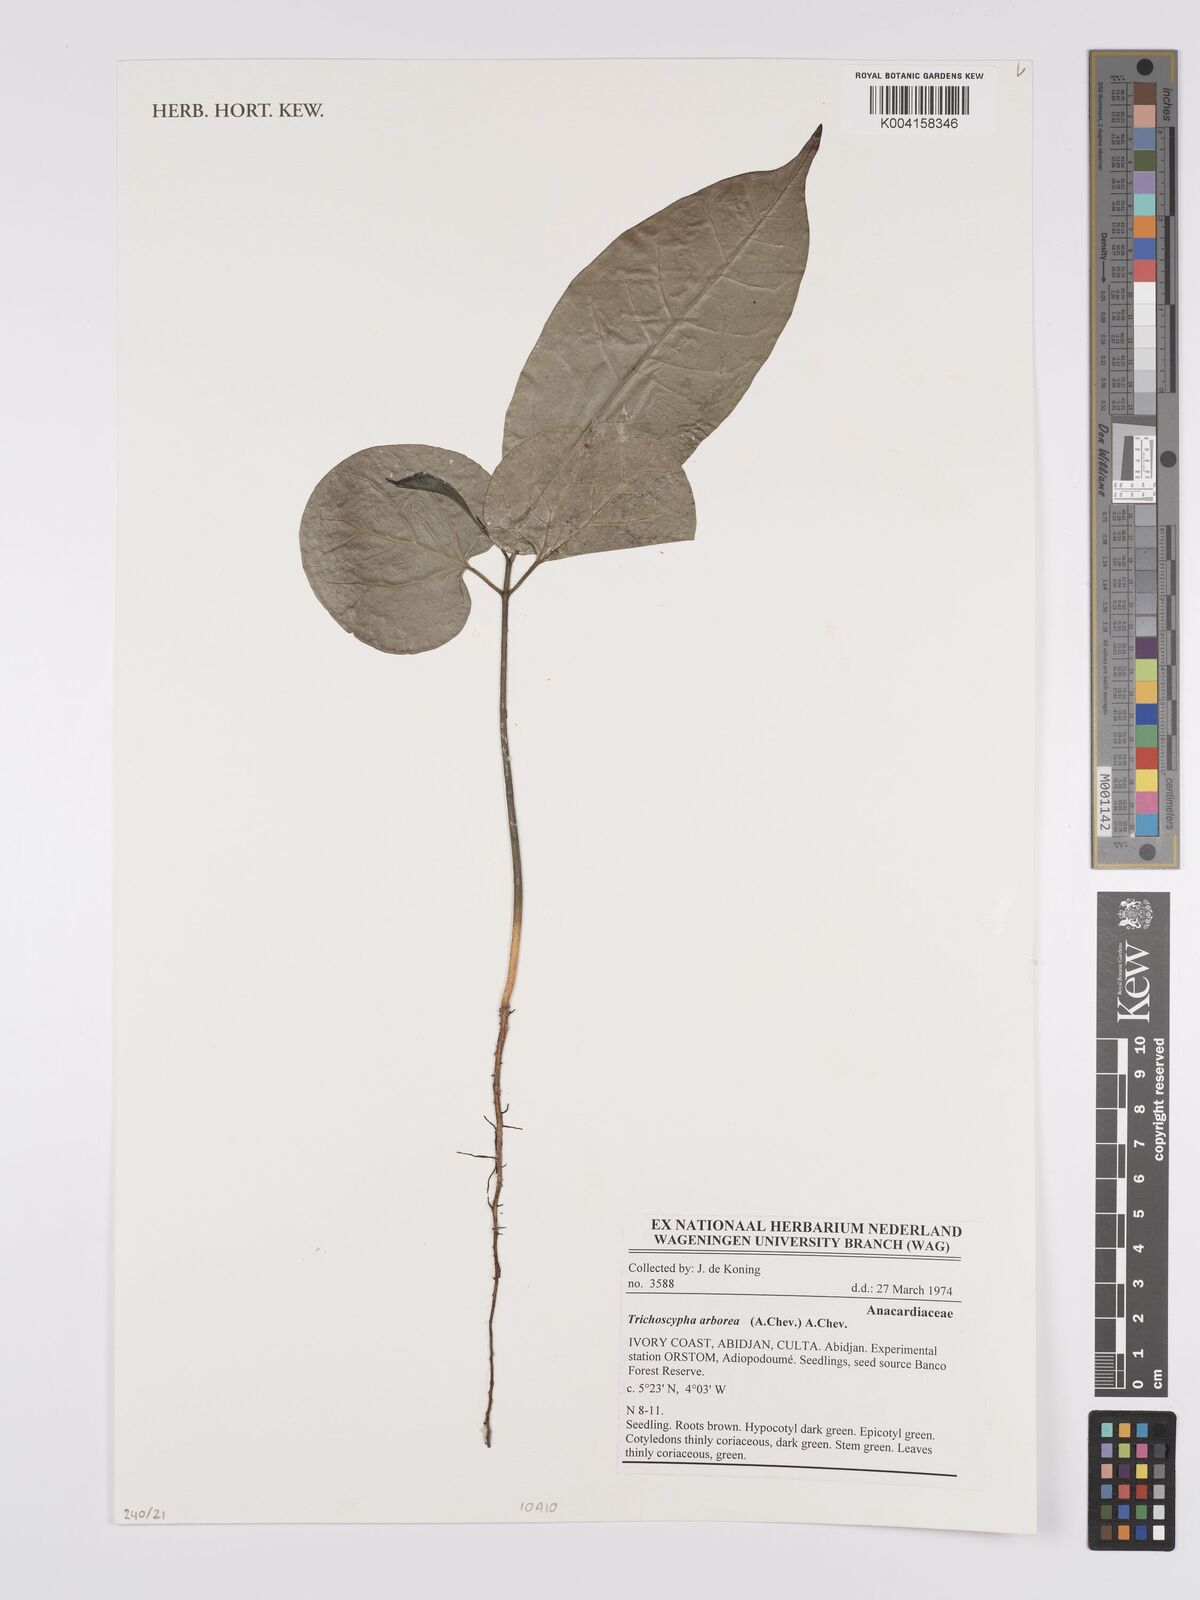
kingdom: Plantae
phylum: Tracheophyta
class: Magnoliopsida
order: Sapindales
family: Anacardiaceae
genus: Trichoscypha
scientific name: Trichoscypha arborea
